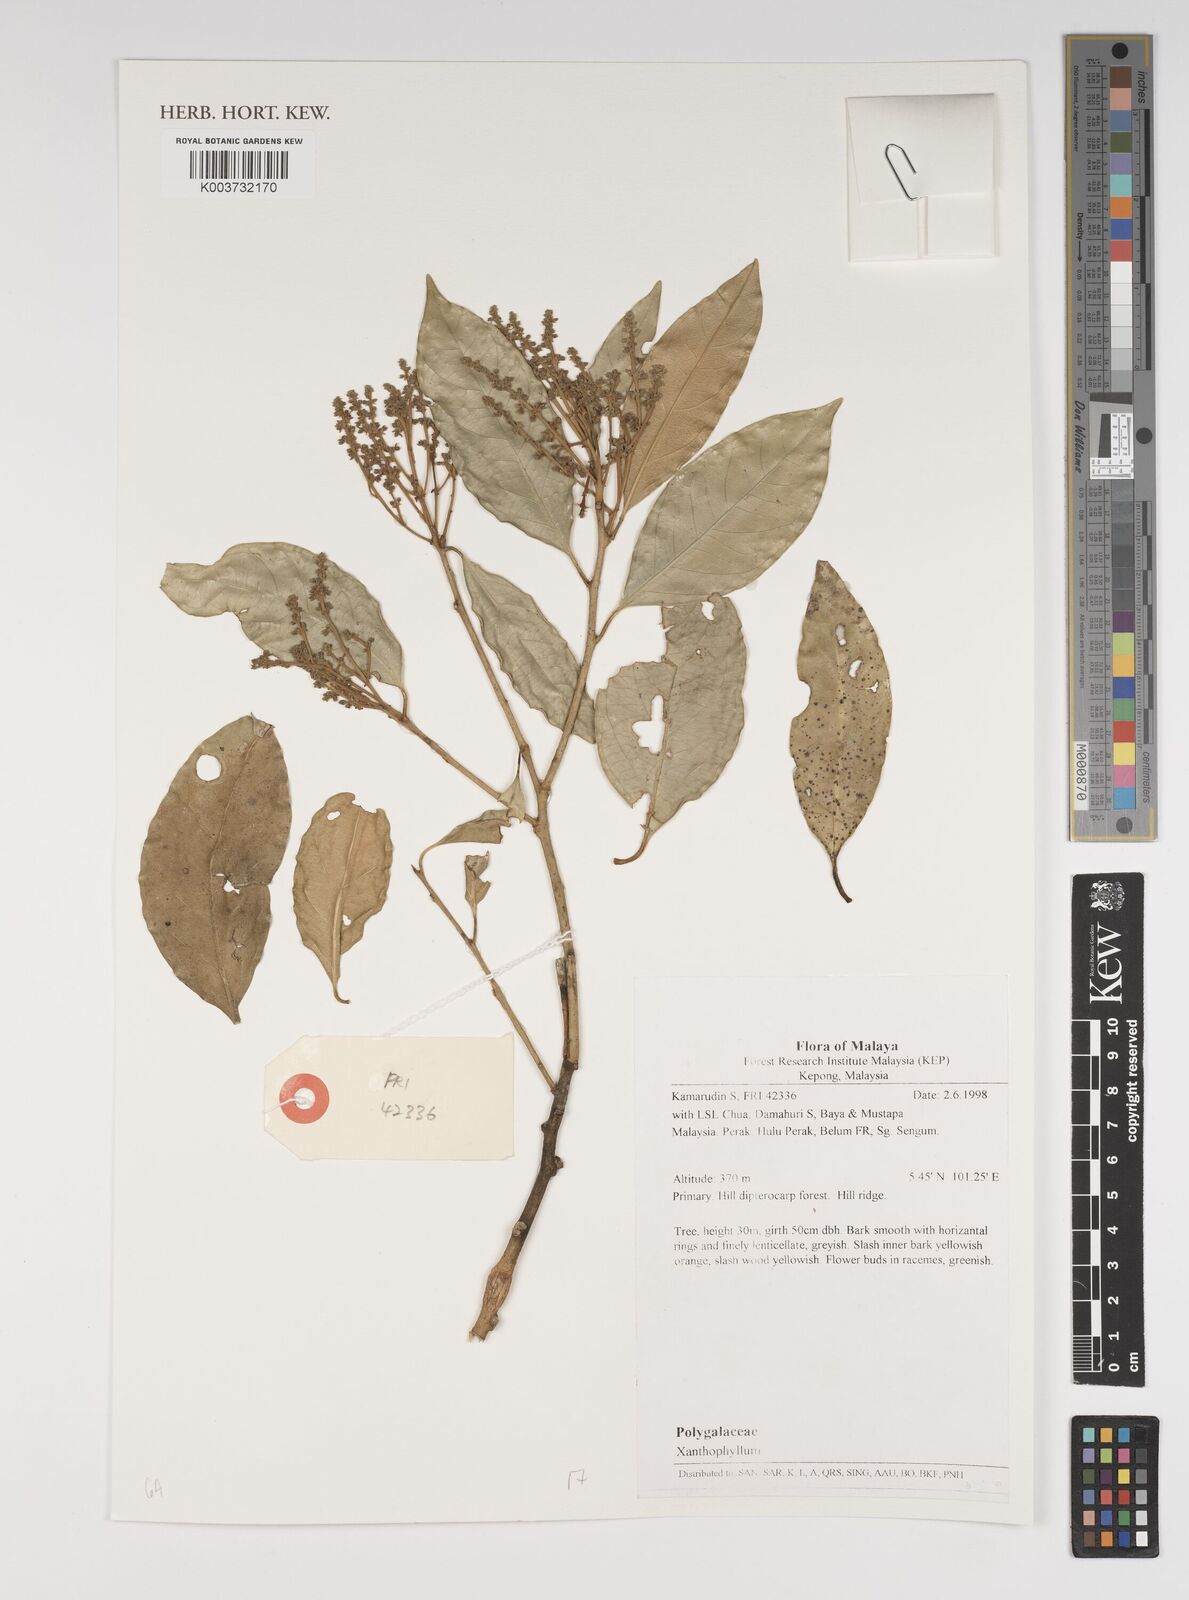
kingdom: Plantae
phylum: Tracheophyta
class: Magnoliopsida
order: Fabales
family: Polygalaceae
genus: Xanthophyllum
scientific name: Xanthophyllum
